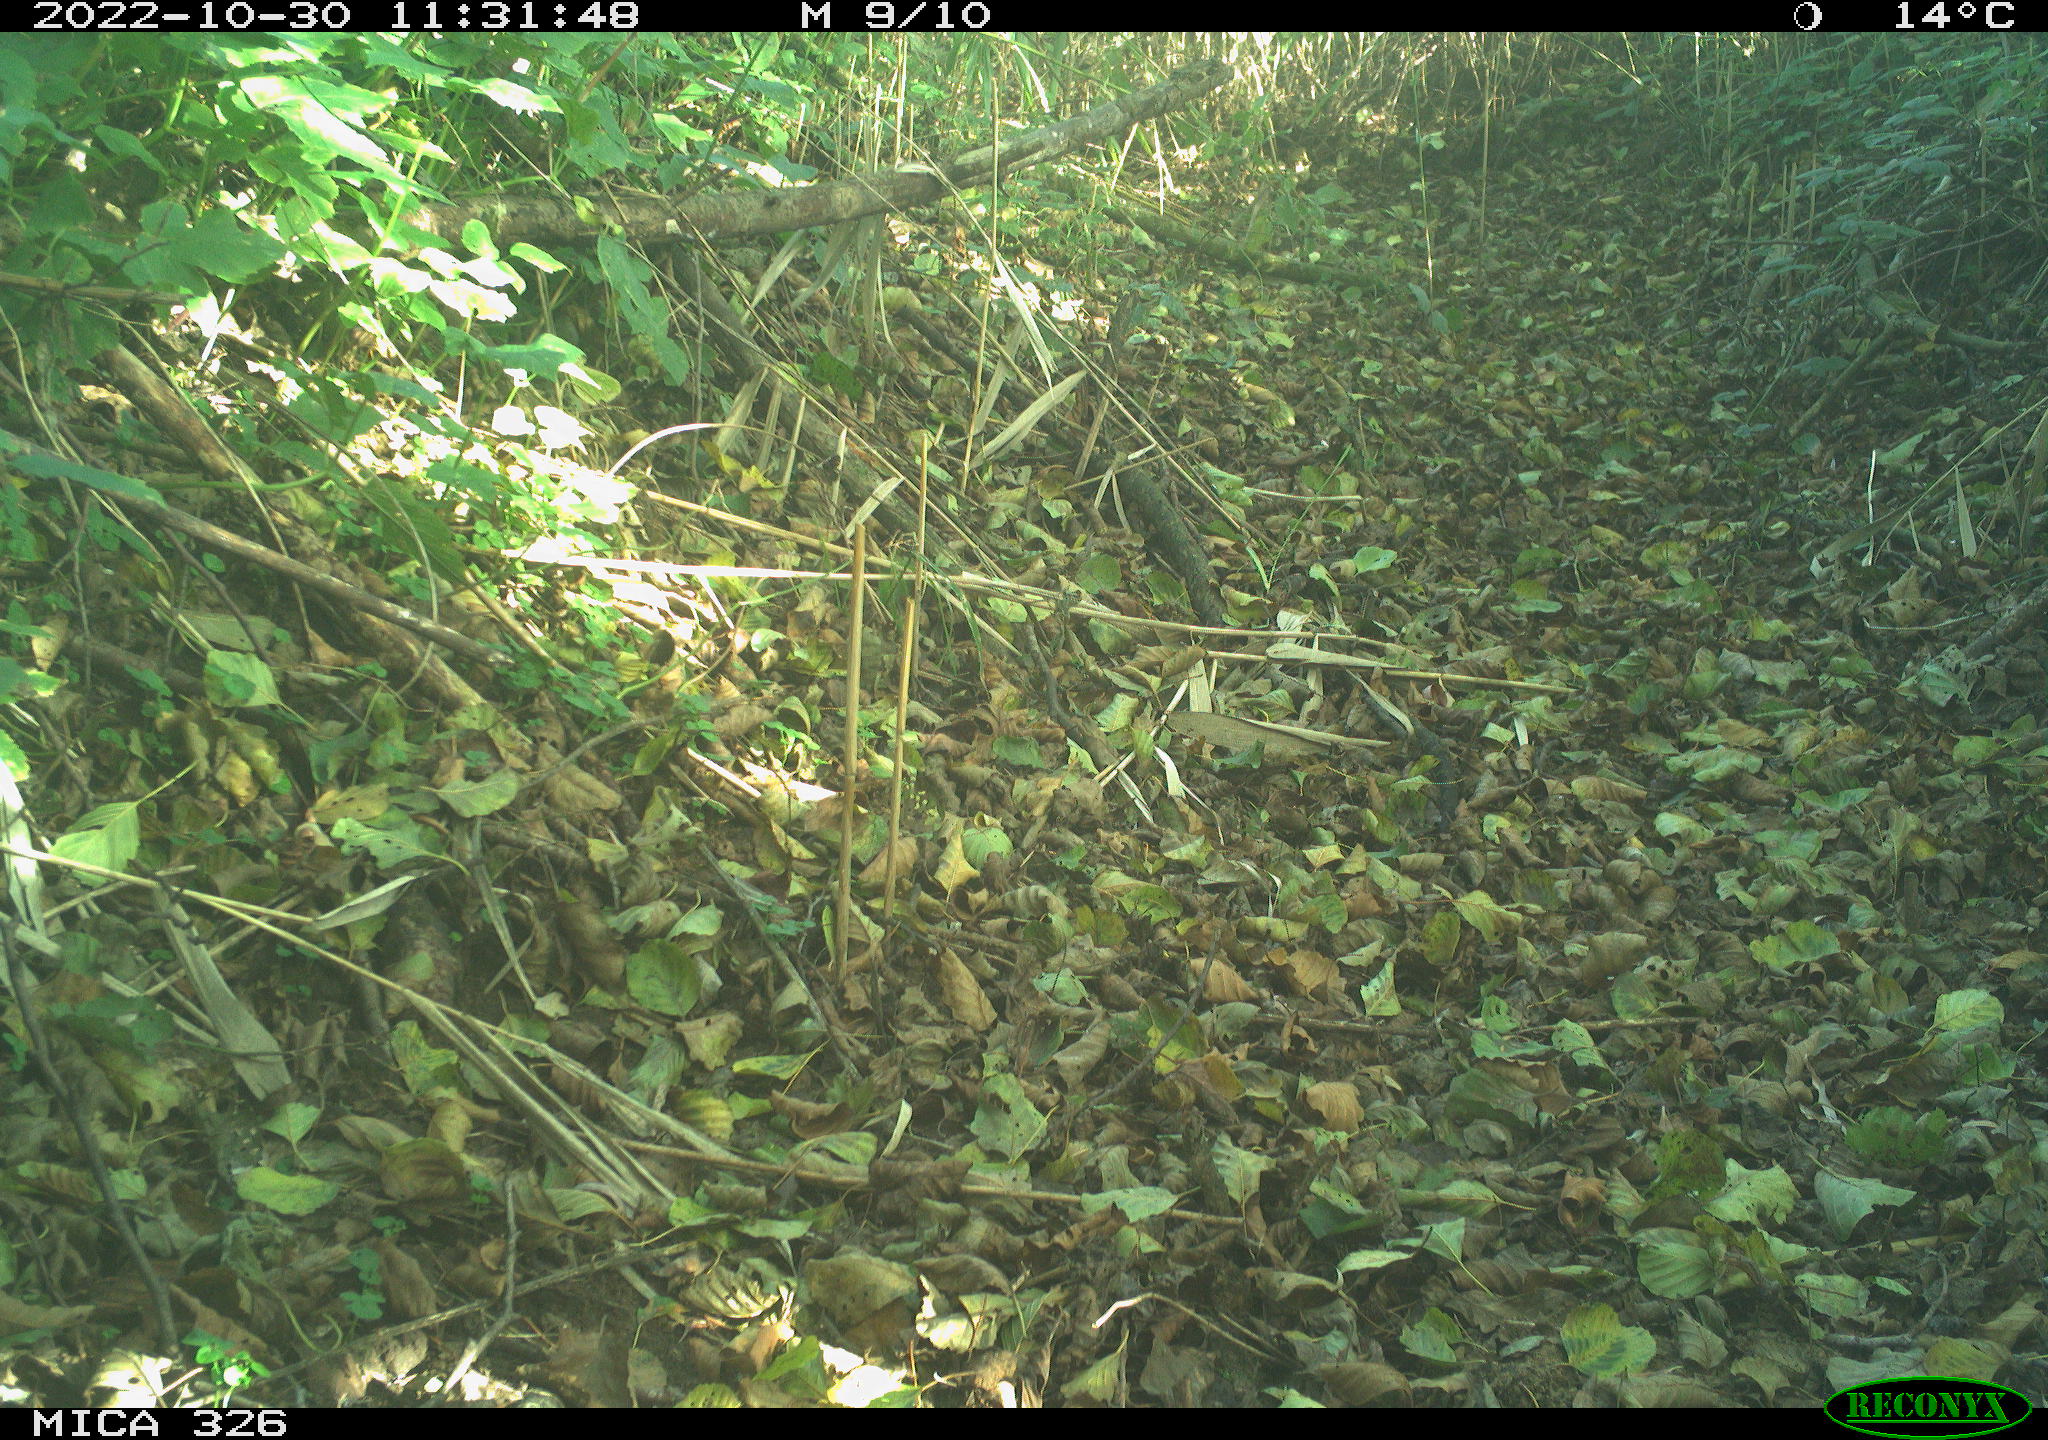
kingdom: Animalia
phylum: Chordata
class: Aves
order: Passeriformes
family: Turdidae
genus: Turdus
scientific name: Turdus philomelos
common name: Song thrush
